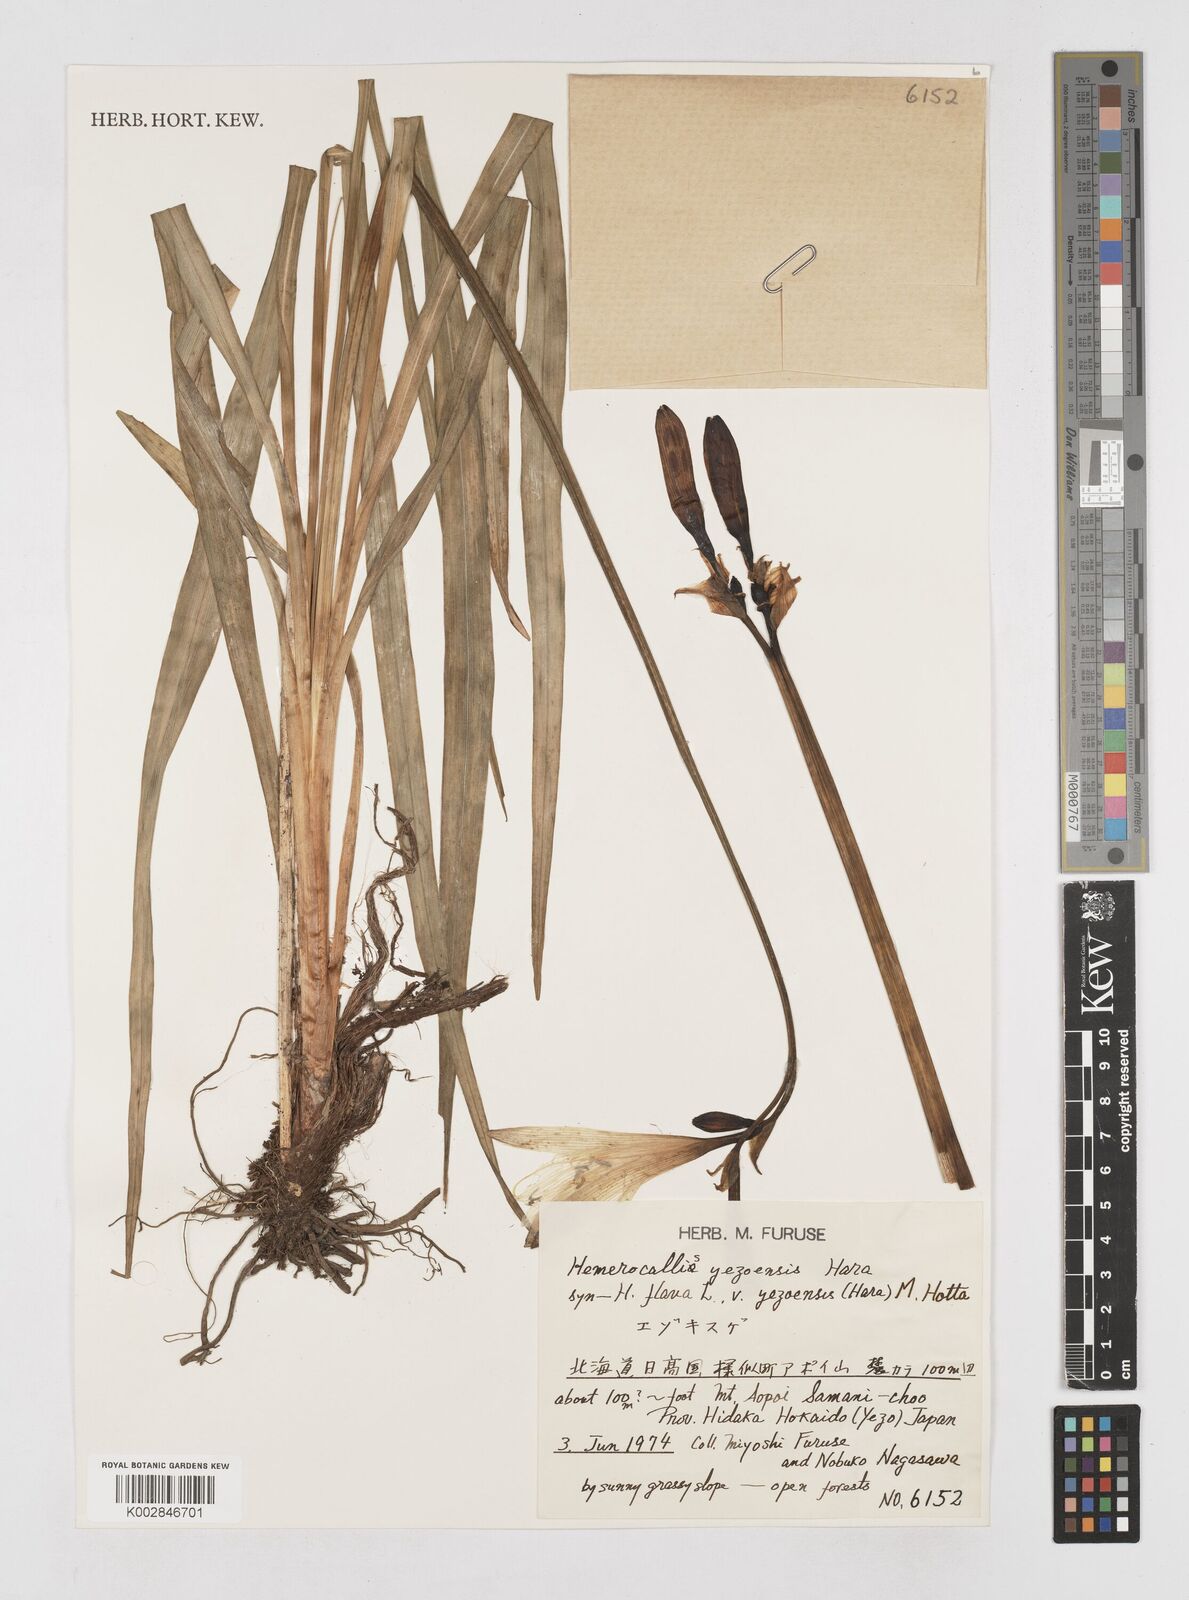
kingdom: Plantae
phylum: Tracheophyta
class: Liliopsida
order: Asparagales
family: Asphodelaceae
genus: Hemerocallis
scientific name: Hemerocallis yezoensis
